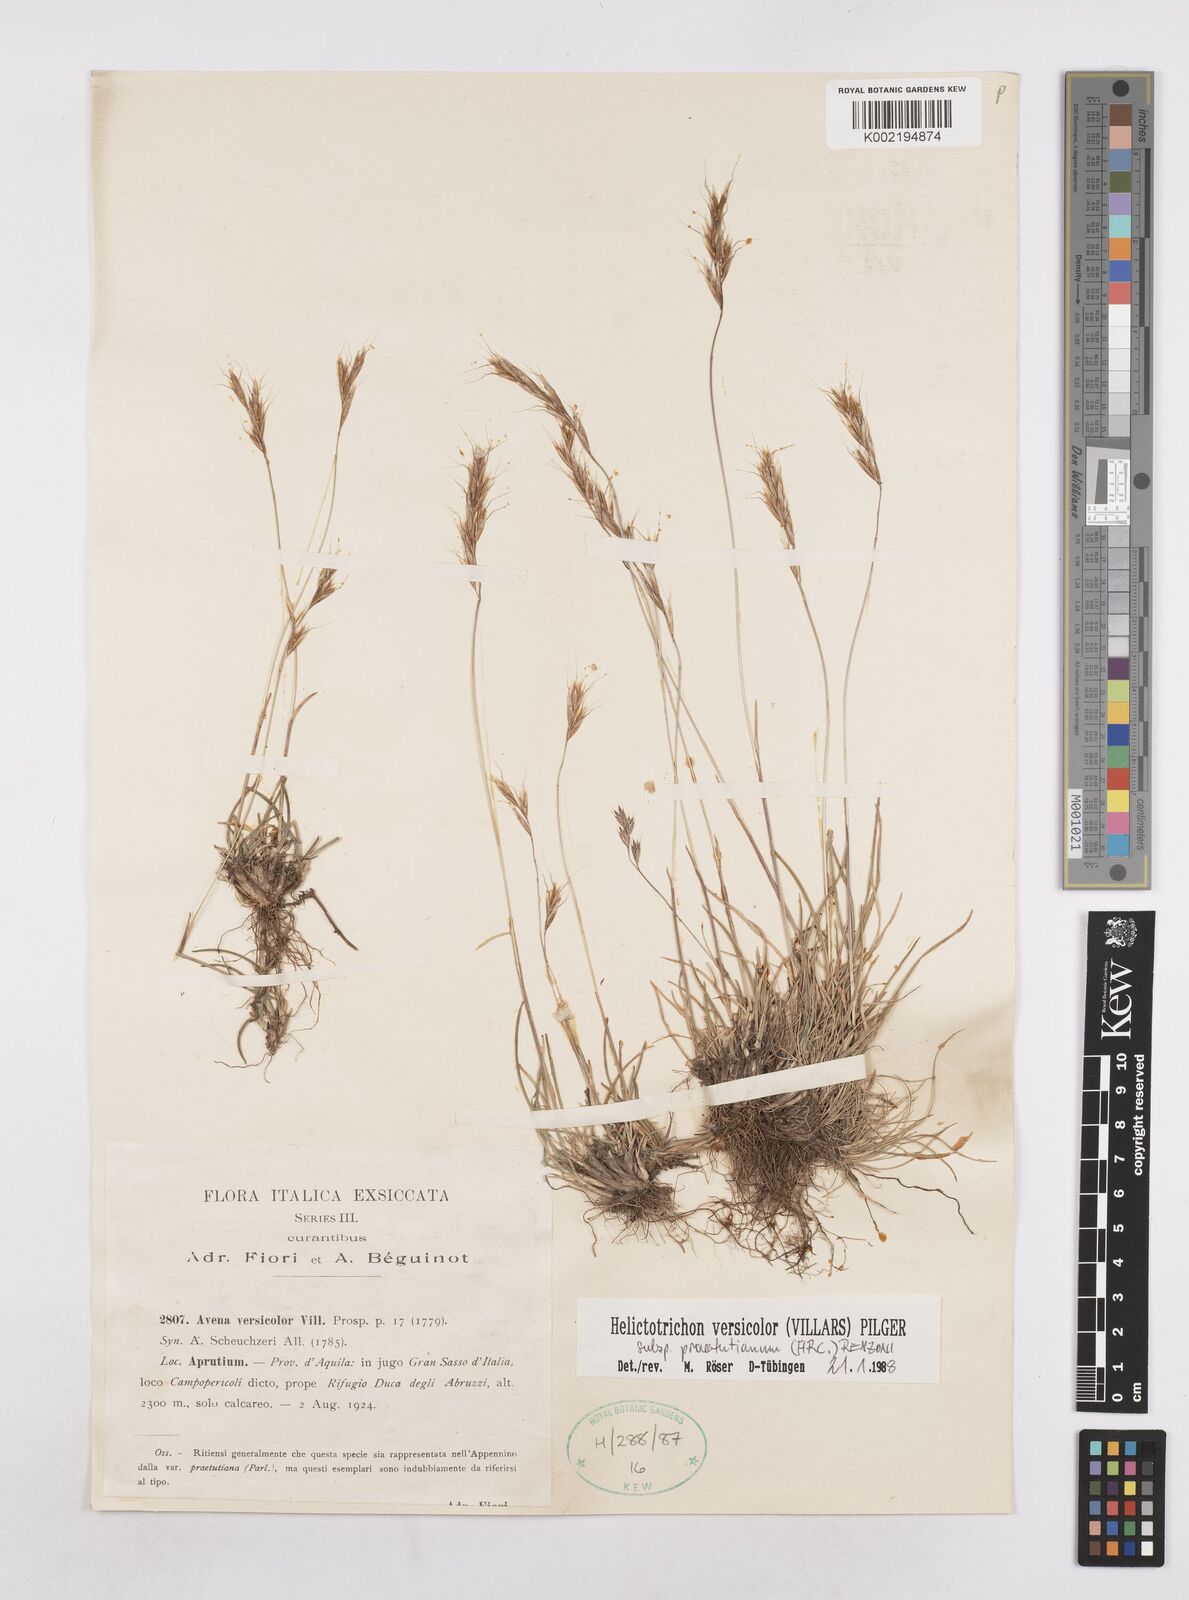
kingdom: Plantae
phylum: Tracheophyta
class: Liliopsida
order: Poales
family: Poaceae
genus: Helictochloa
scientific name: Helictochloa versicolor
